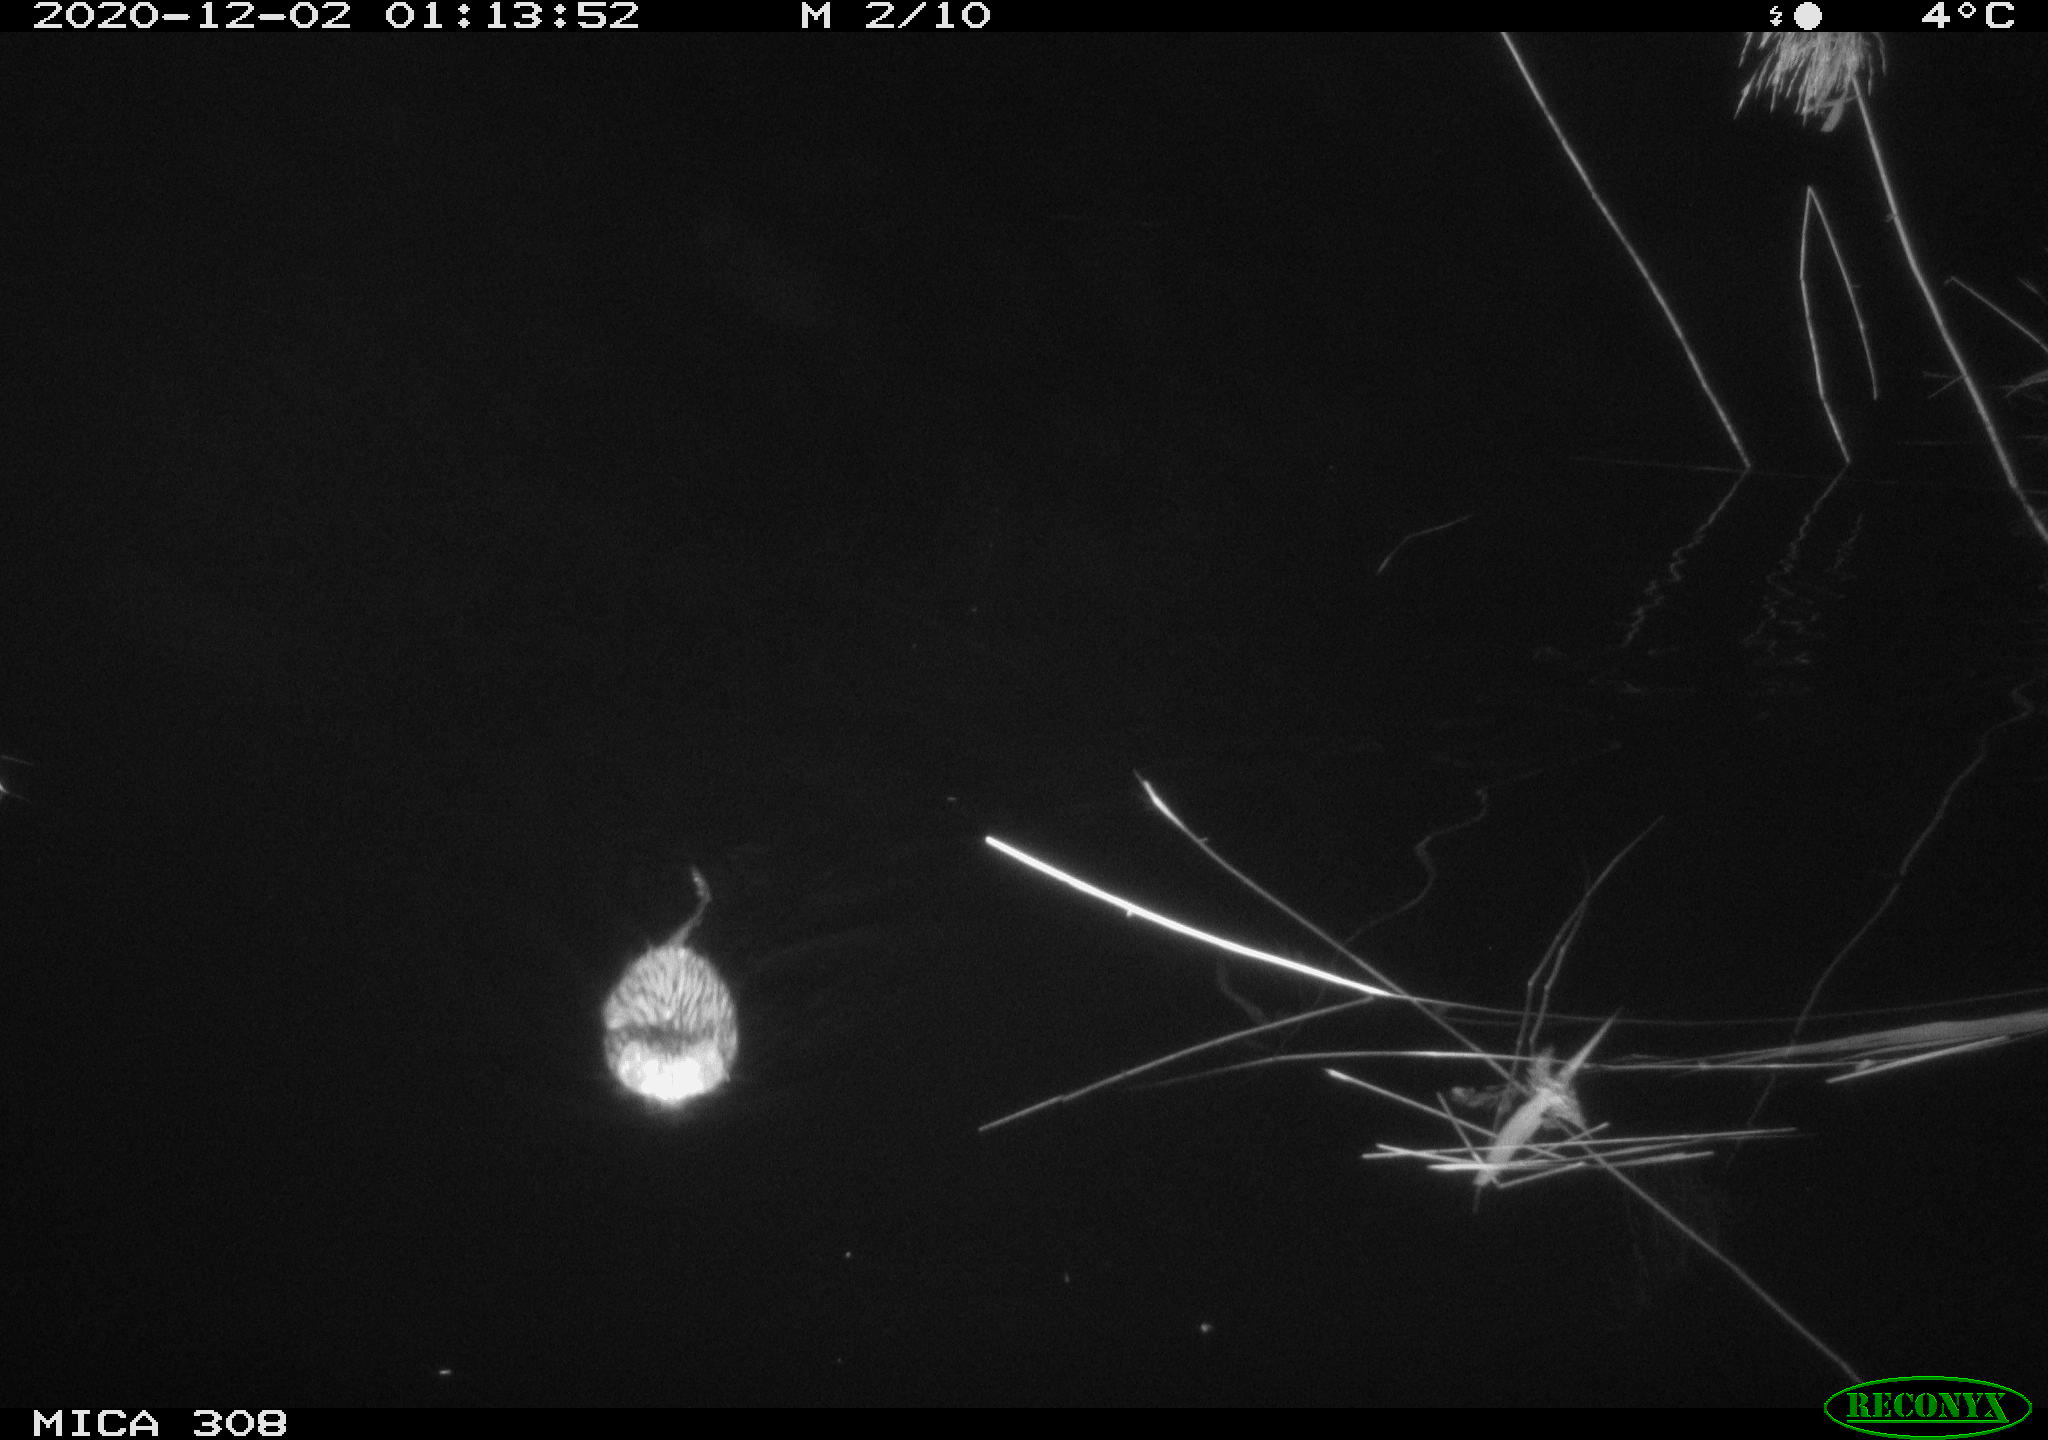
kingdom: Animalia
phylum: Chordata
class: Mammalia
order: Rodentia
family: Cricetidae
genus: Ondatra
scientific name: Ondatra zibethicus
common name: Muskrat
